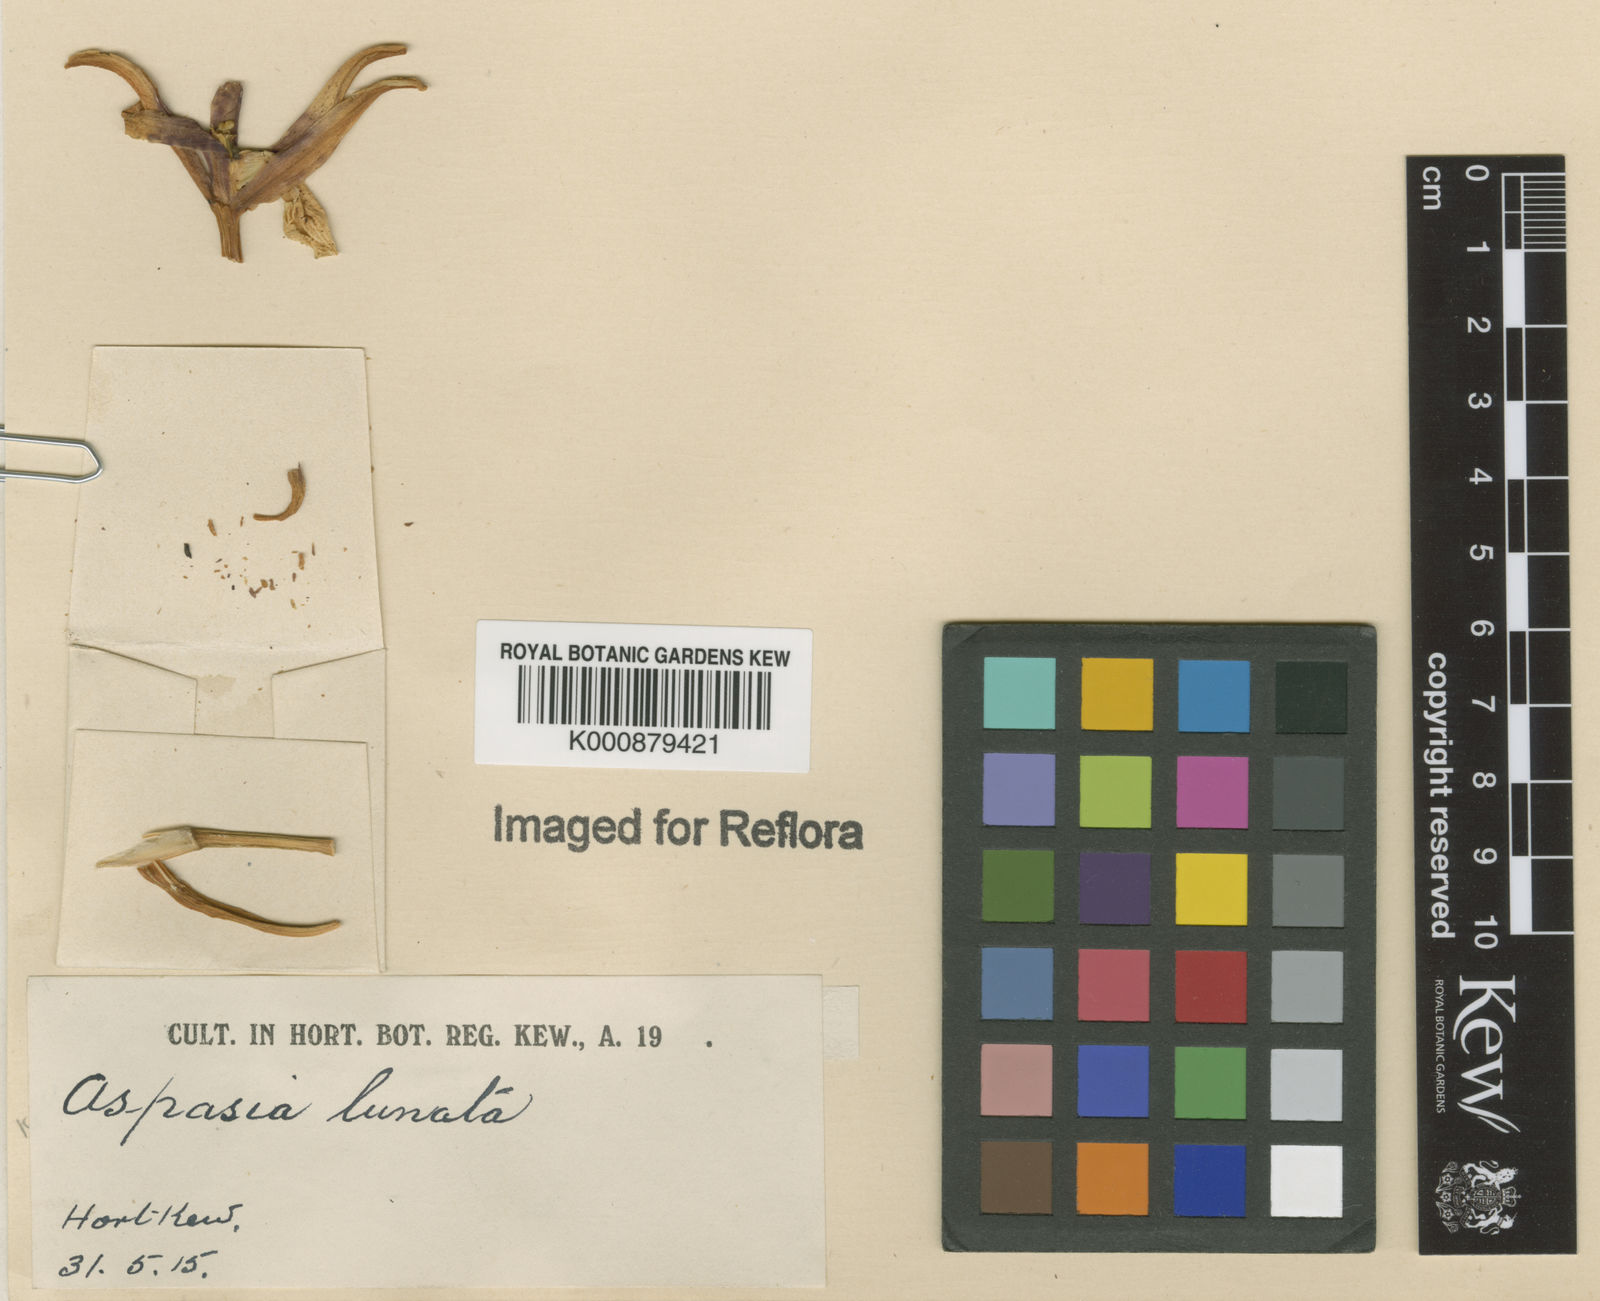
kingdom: Plantae
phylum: Tracheophyta
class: Liliopsida
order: Asparagales
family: Orchidaceae
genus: Aspasia
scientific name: Aspasia lunata
